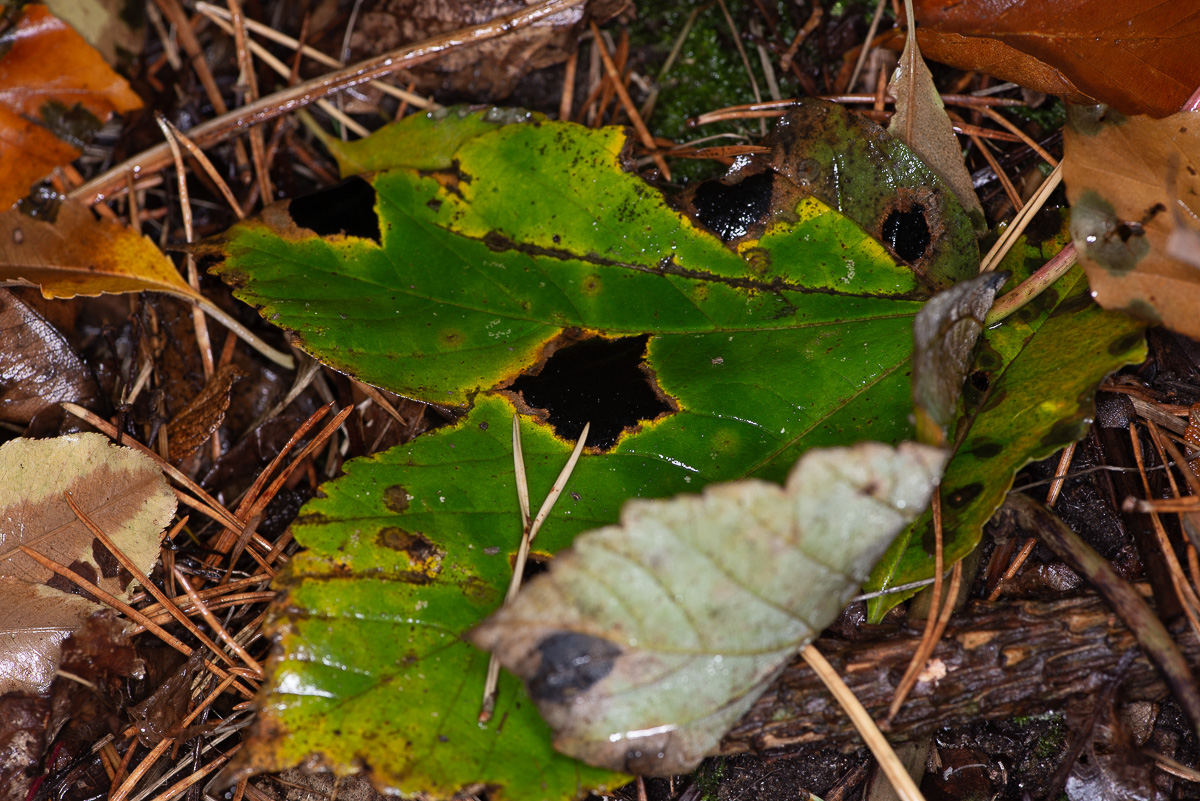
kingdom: Fungi
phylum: Ascomycota
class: Leotiomycetes
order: Rhytismatales
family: Rhytismataceae
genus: Rhytisma
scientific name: Rhytisma acerinum
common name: ahorn-rynkeplet
